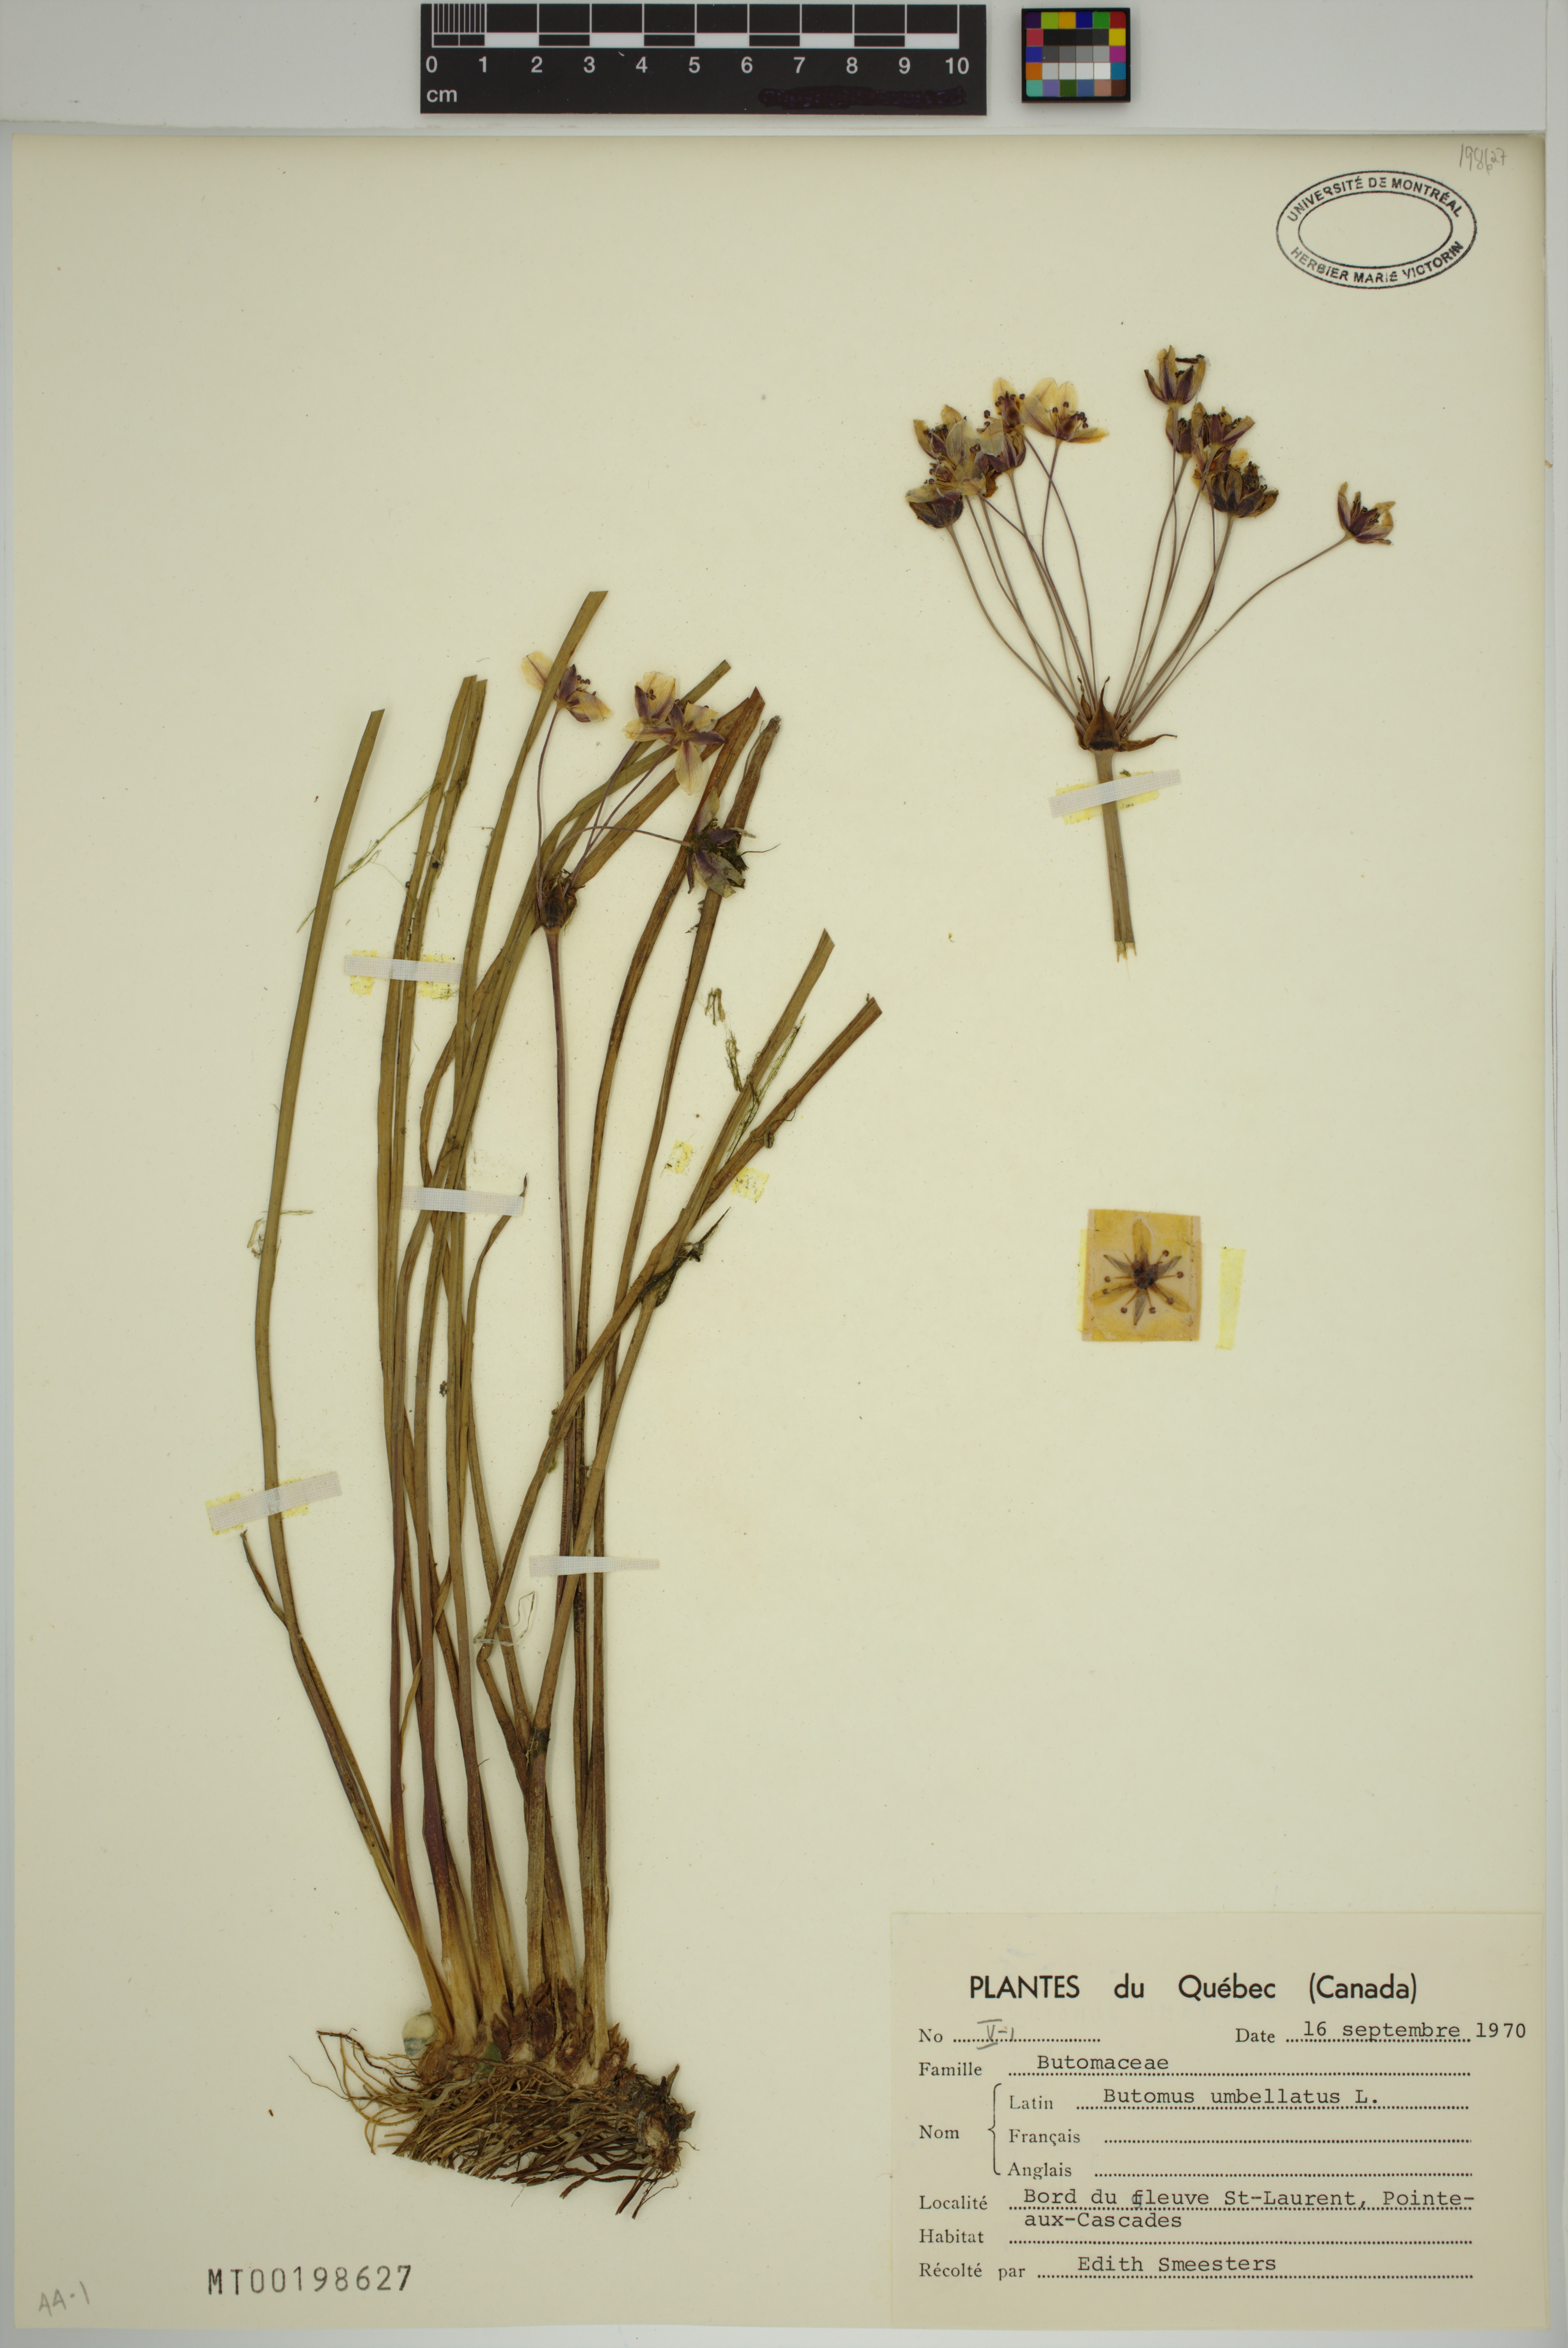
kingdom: Plantae
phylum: Tracheophyta
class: Liliopsida
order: Alismatales
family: Butomaceae
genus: Butomus
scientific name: Butomus umbellatus
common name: Flowering-rush
